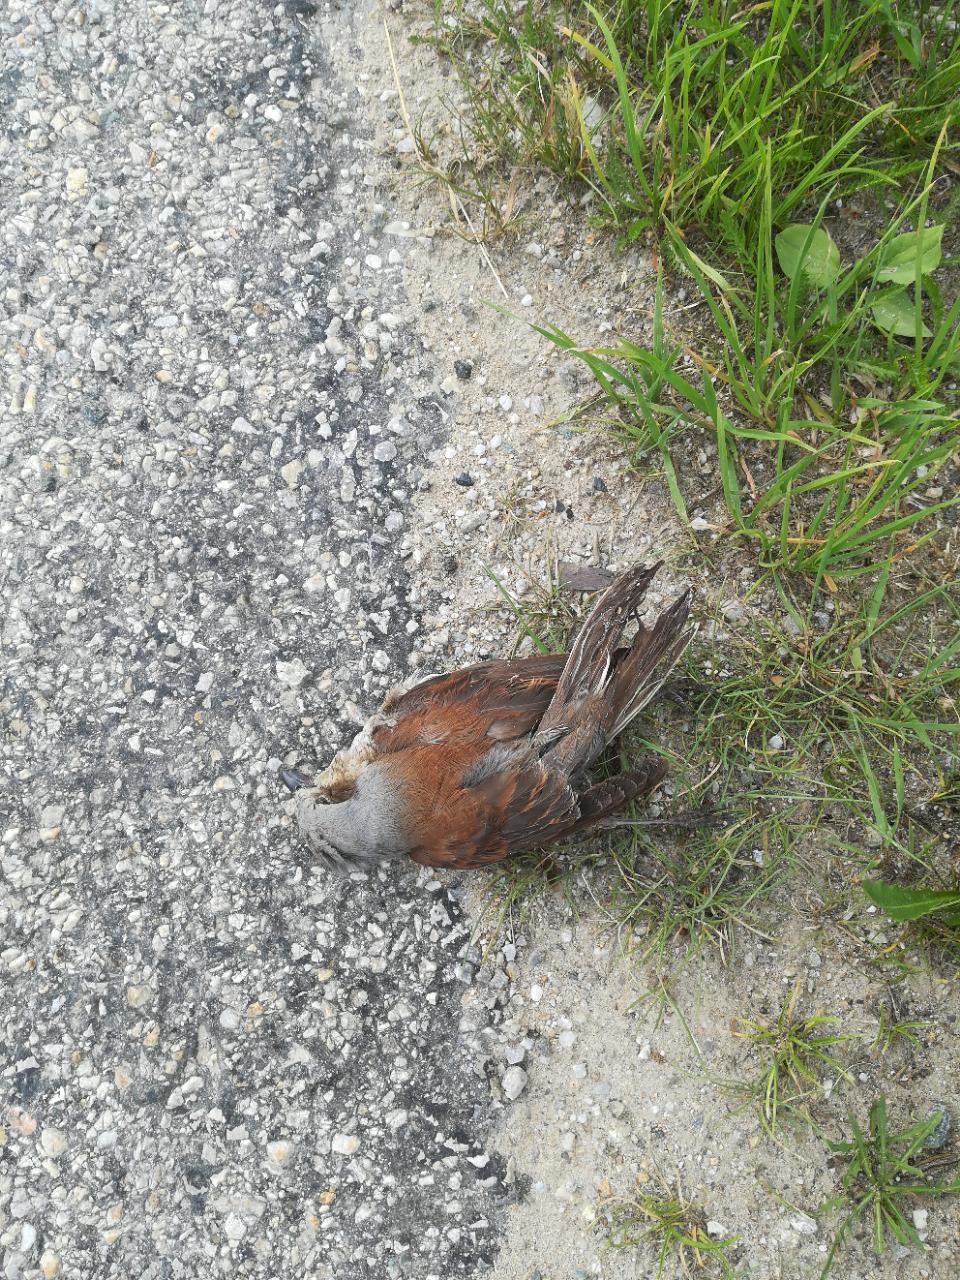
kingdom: Animalia
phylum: Chordata
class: Aves
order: Passeriformes
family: Laniidae
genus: Lanius
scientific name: Lanius collurio
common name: Red-backed shrike
